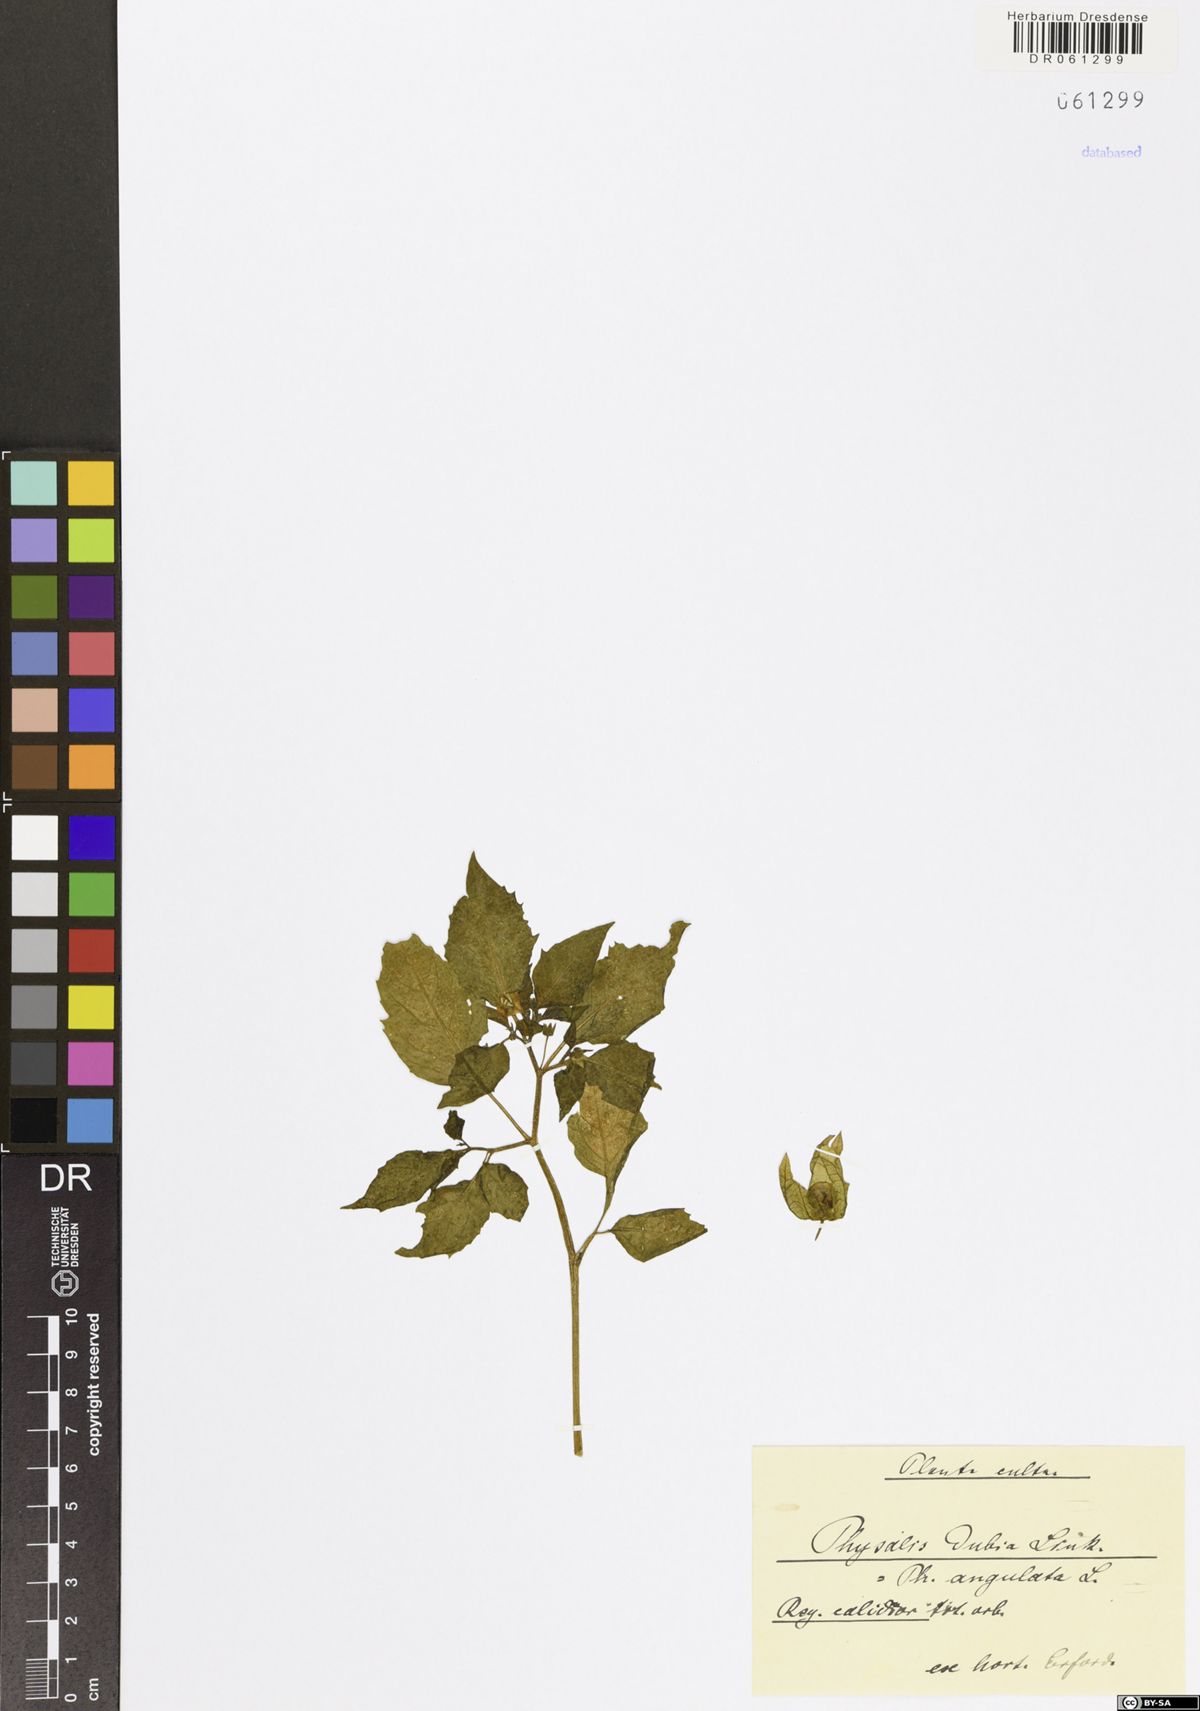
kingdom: Plantae
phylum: Tracheophyta
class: Magnoliopsida
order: Solanales
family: Solanaceae
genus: Physalis
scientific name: Physalis angulata
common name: Angular winter-cherry
